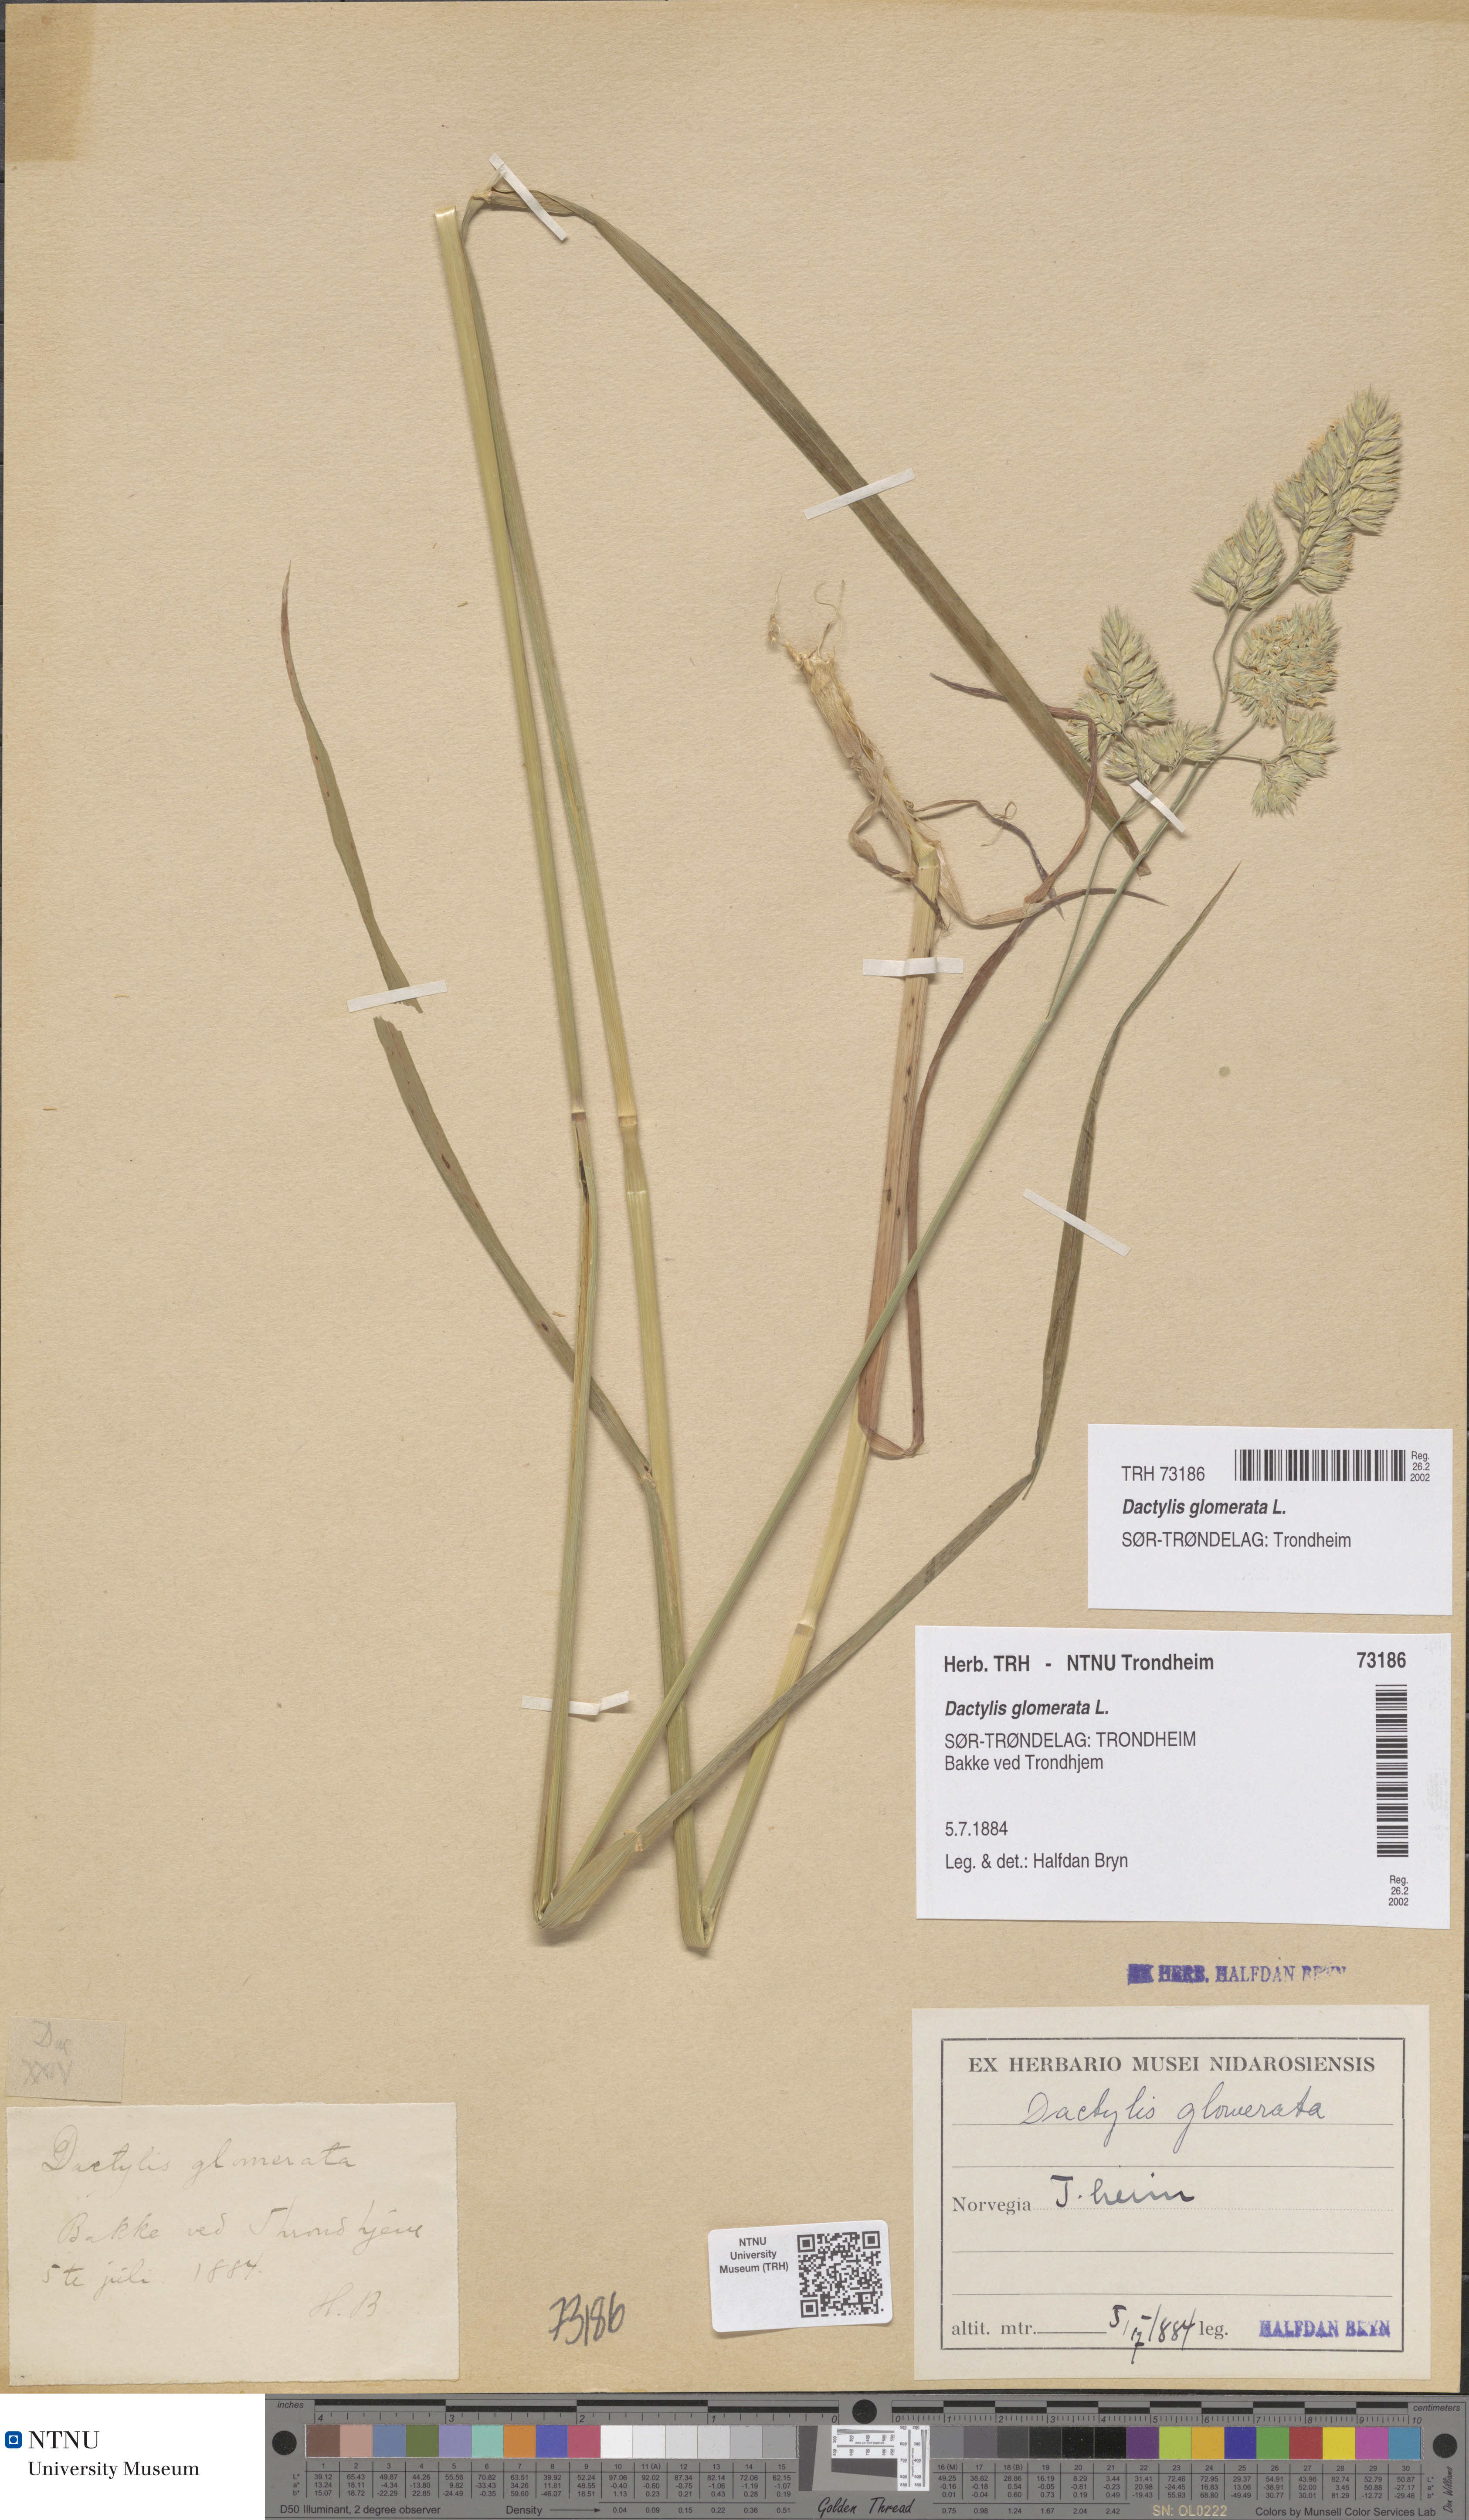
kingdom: Plantae
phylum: Tracheophyta
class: Liliopsida
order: Poales
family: Poaceae
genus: Dactylis
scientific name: Dactylis glomerata
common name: Orchardgrass
